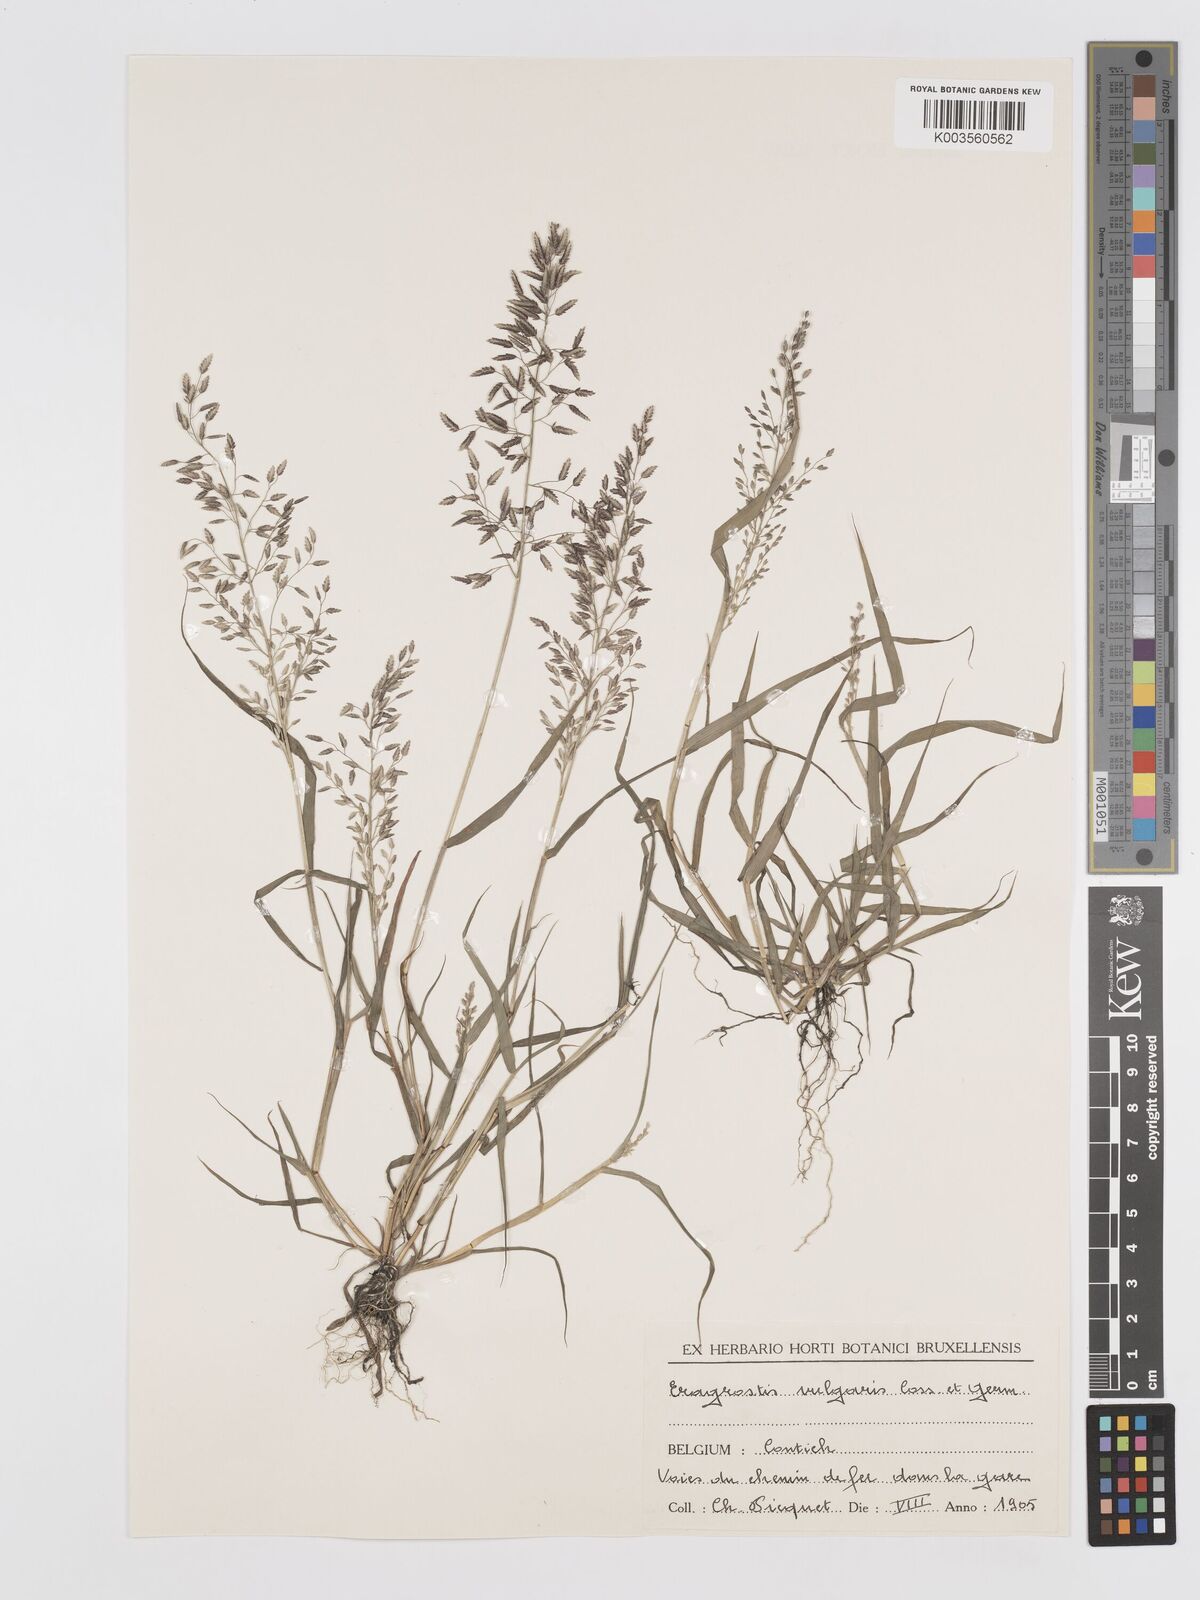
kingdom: Plantae
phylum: Tracheophyta
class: Liliopsida
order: Poales
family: Poaceae
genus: Eragrostis
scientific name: Eragrostis cilianensis
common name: Stinkgrass
